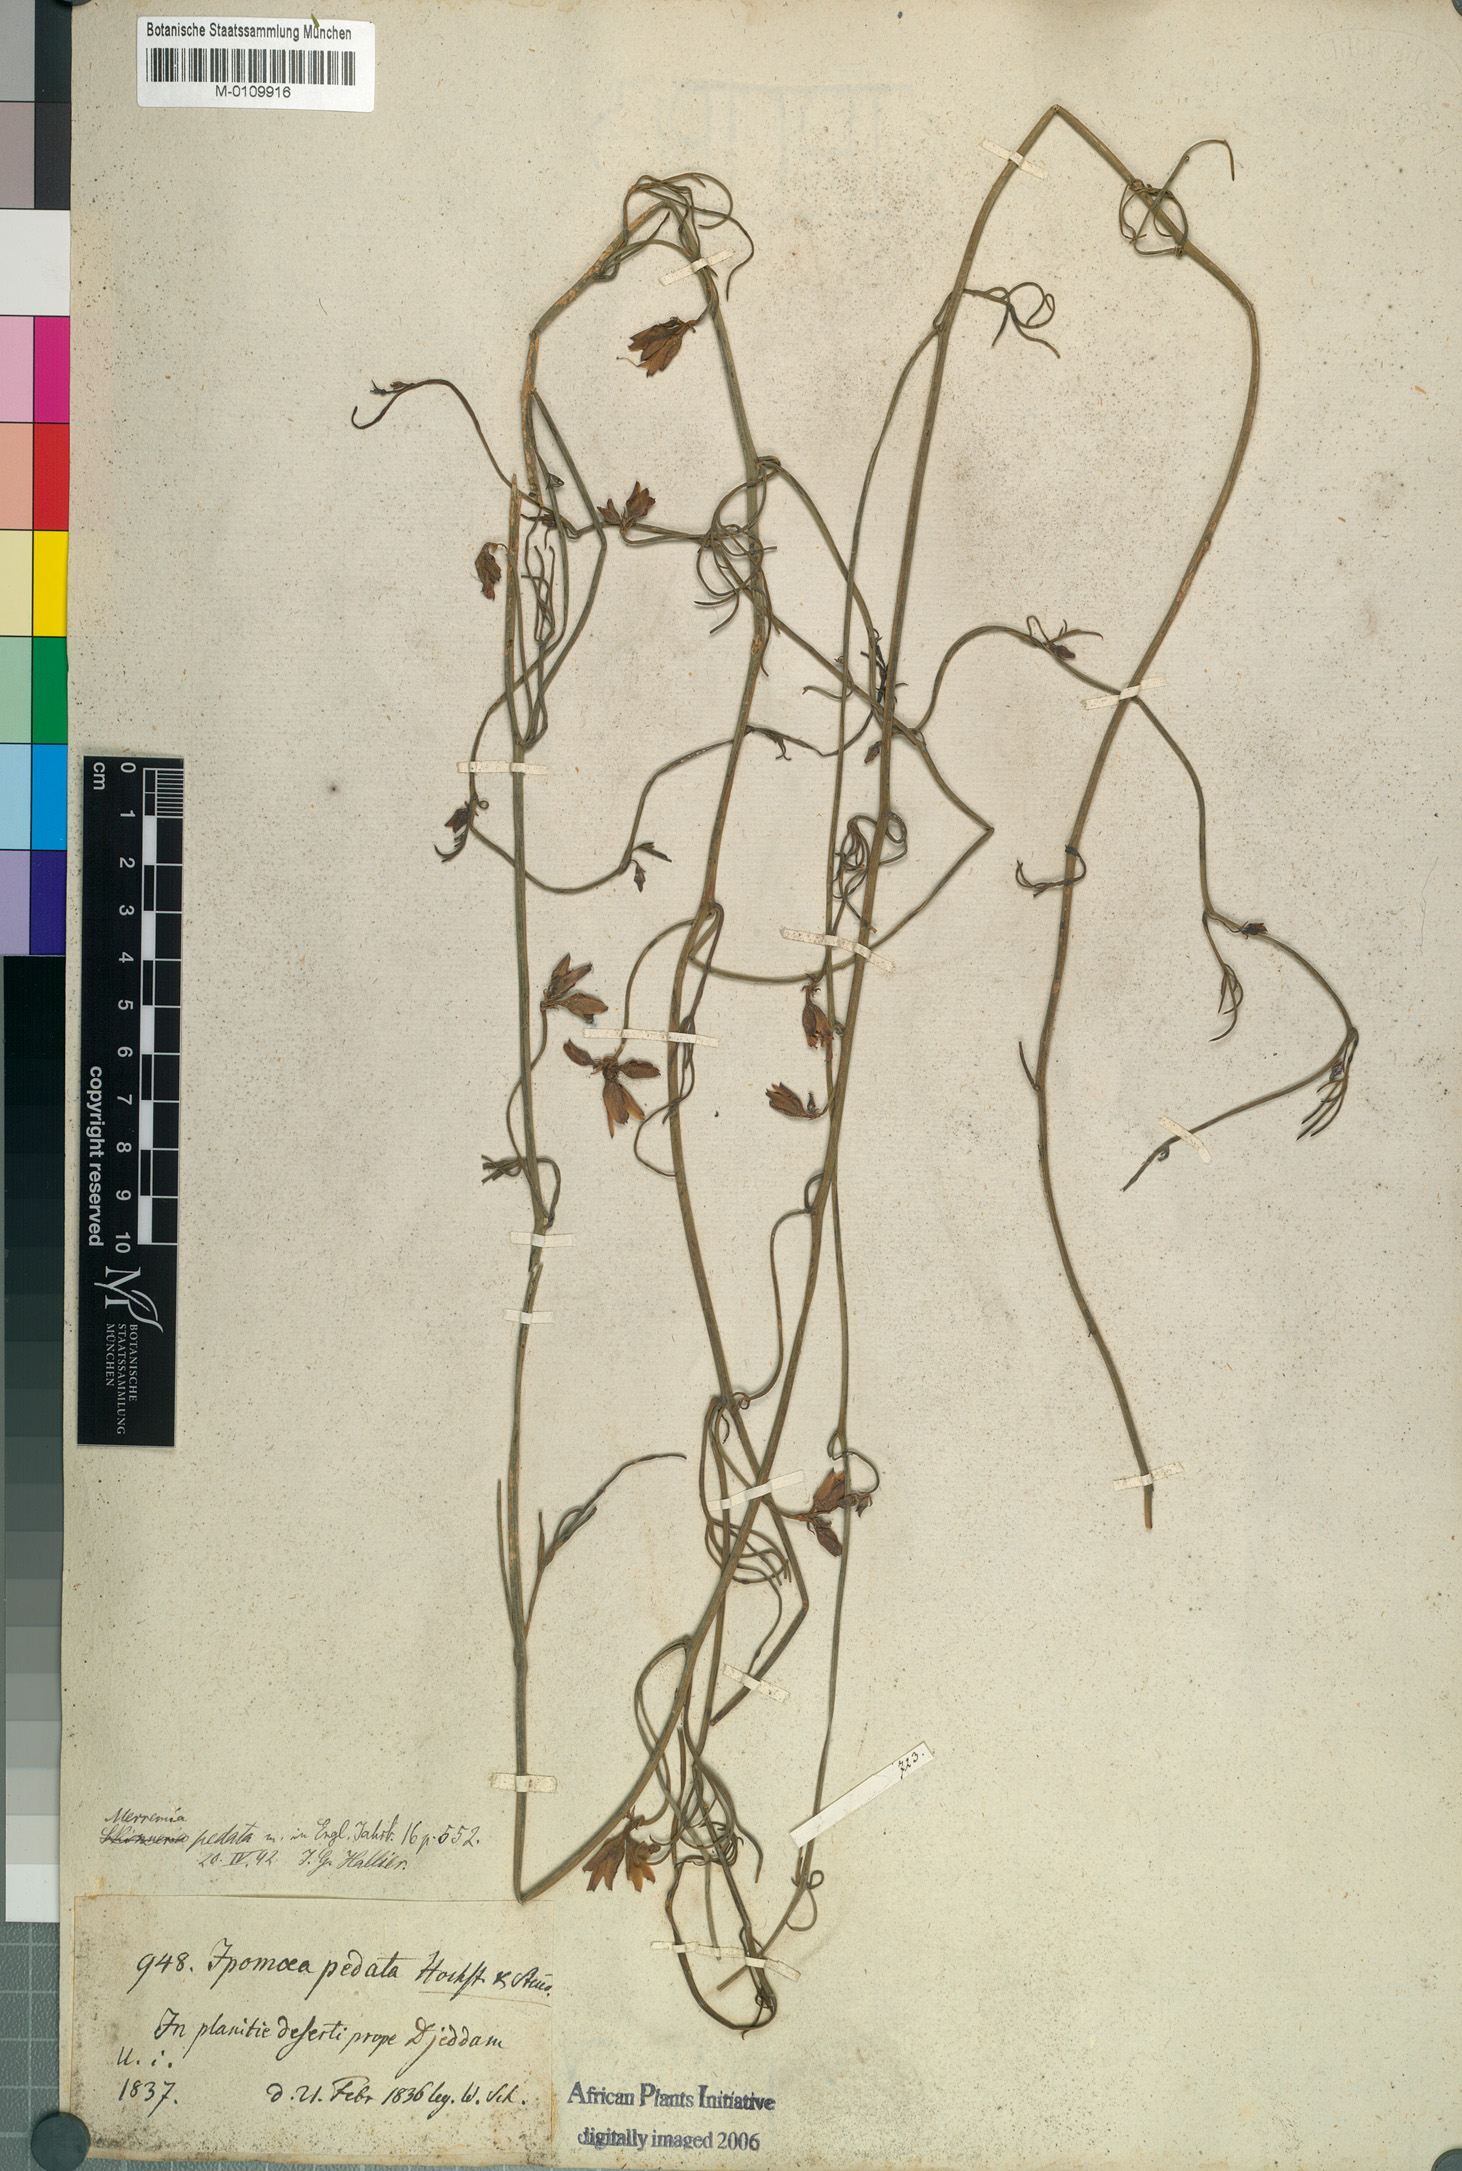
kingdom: Plantae
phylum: Tracheophyta
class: Magnoliopsida
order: Solanales
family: Convolvulaceae
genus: Distimake
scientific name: Distimake semisagittus
